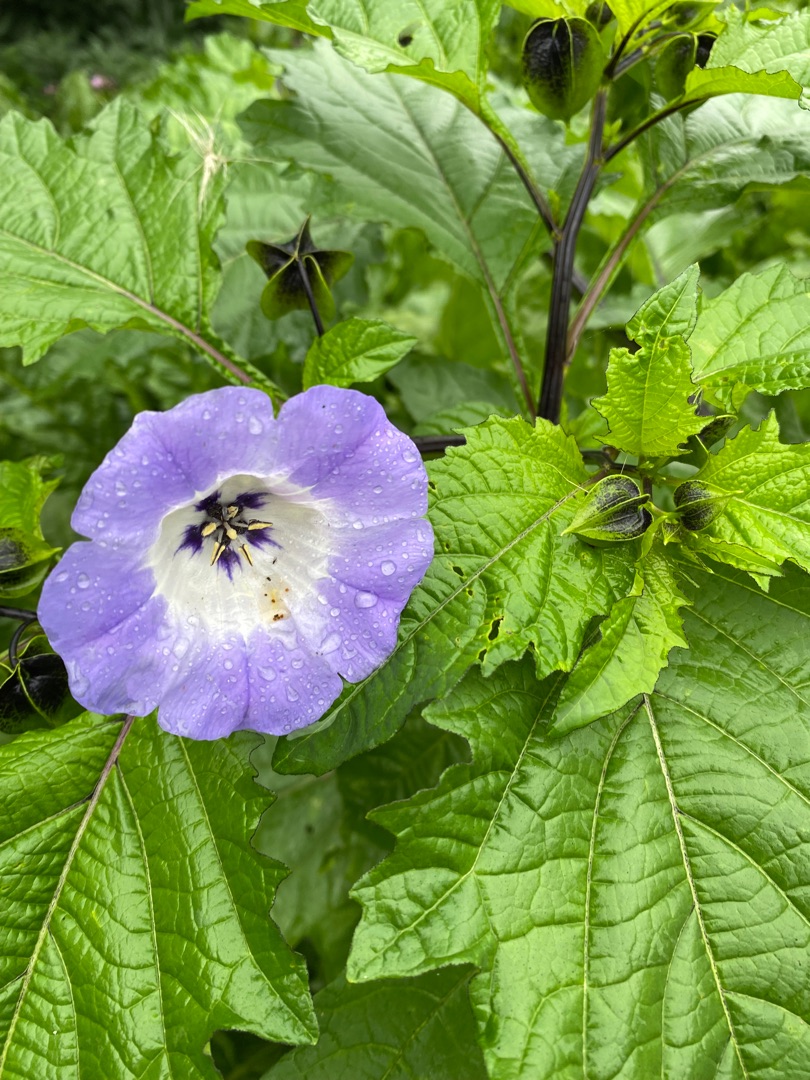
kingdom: Plantae
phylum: Tracheophyta
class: Magnoliopsida
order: Solanales
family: Solanaceae
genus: Nicandra
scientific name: Nicandra physalodes
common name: Kantbæger
